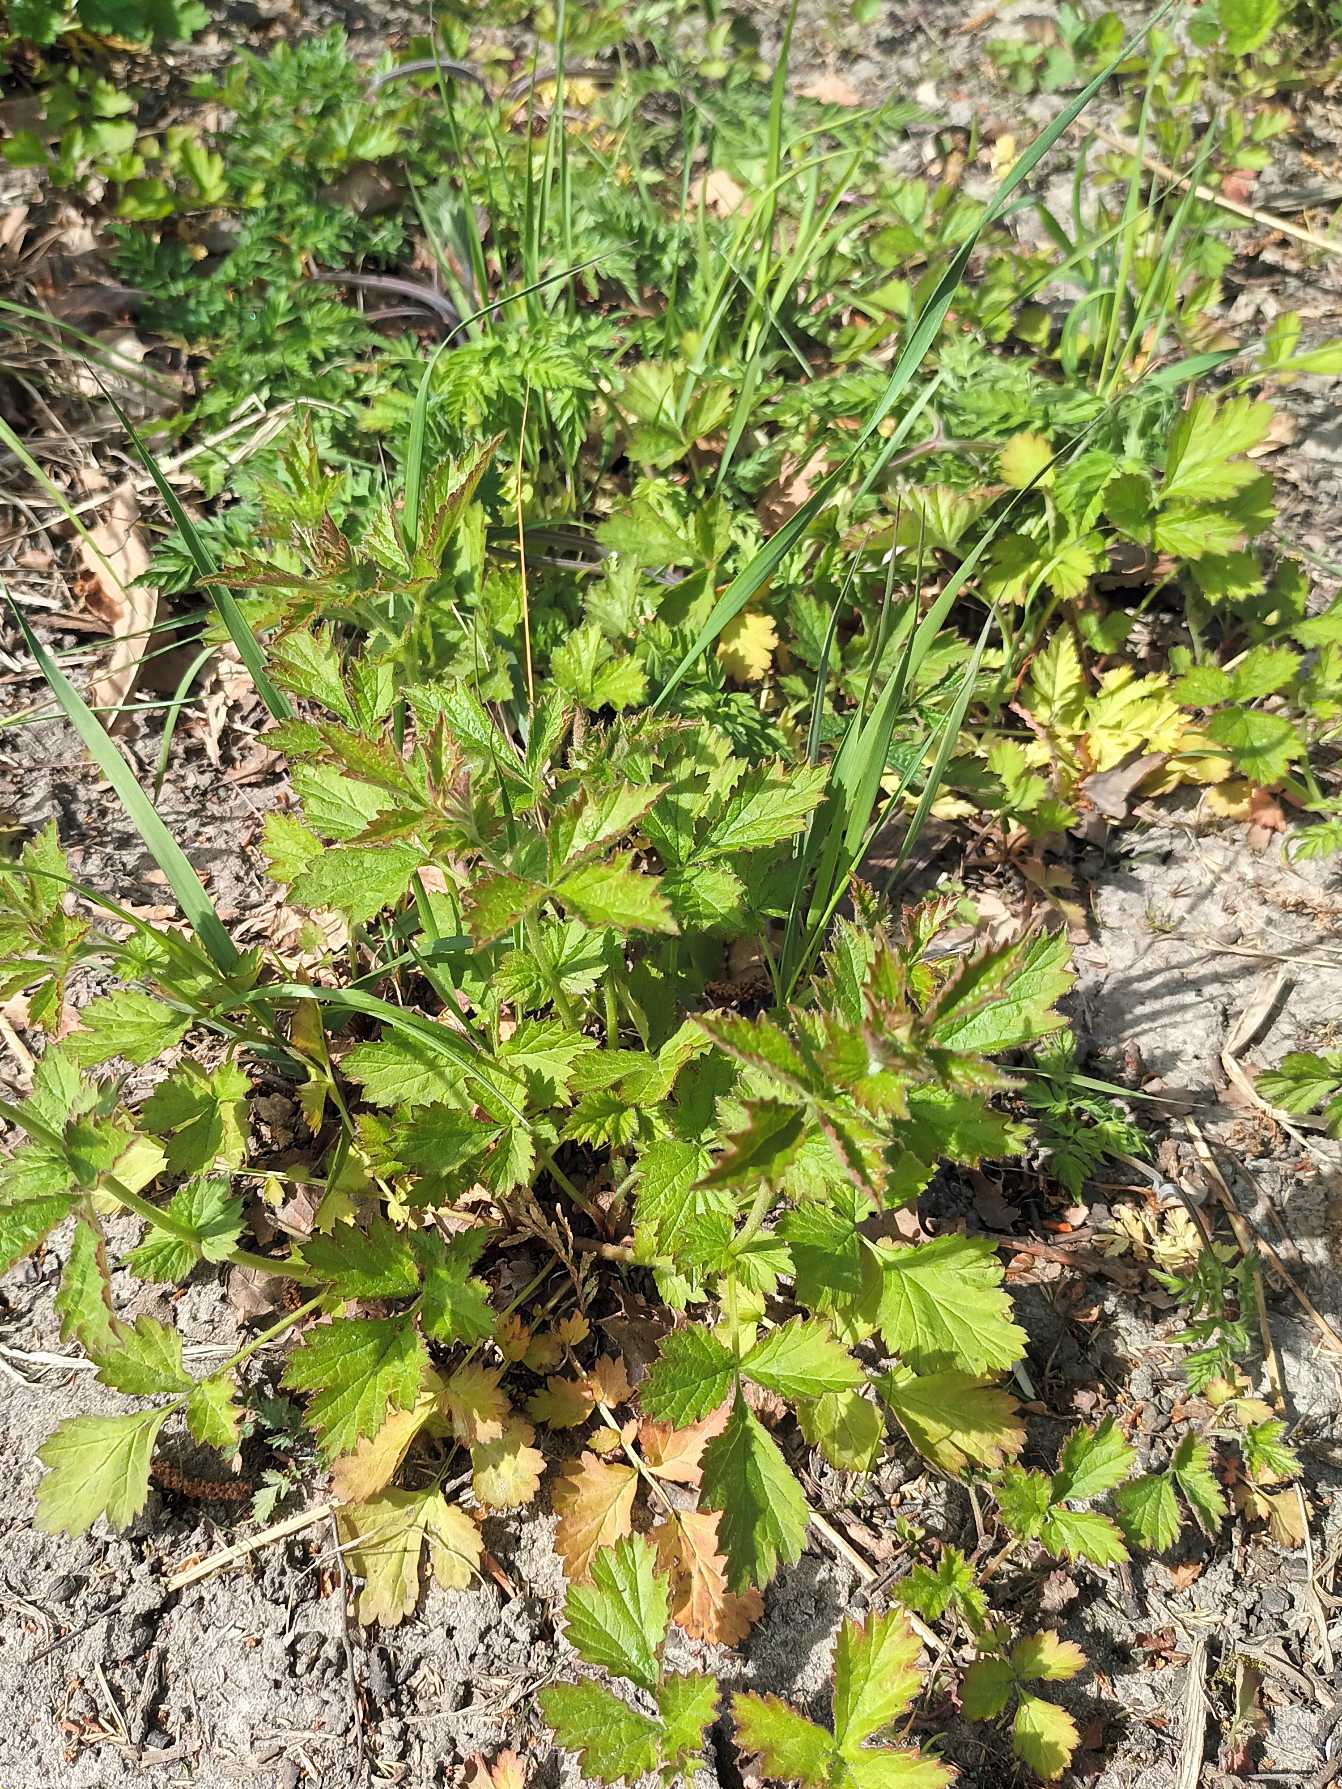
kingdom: Plantae
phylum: Tracheophyta
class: Magnoliopsida
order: Rosales
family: Rosaceae
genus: Geum
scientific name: Geum urbanum
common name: Feber-nellikerod
